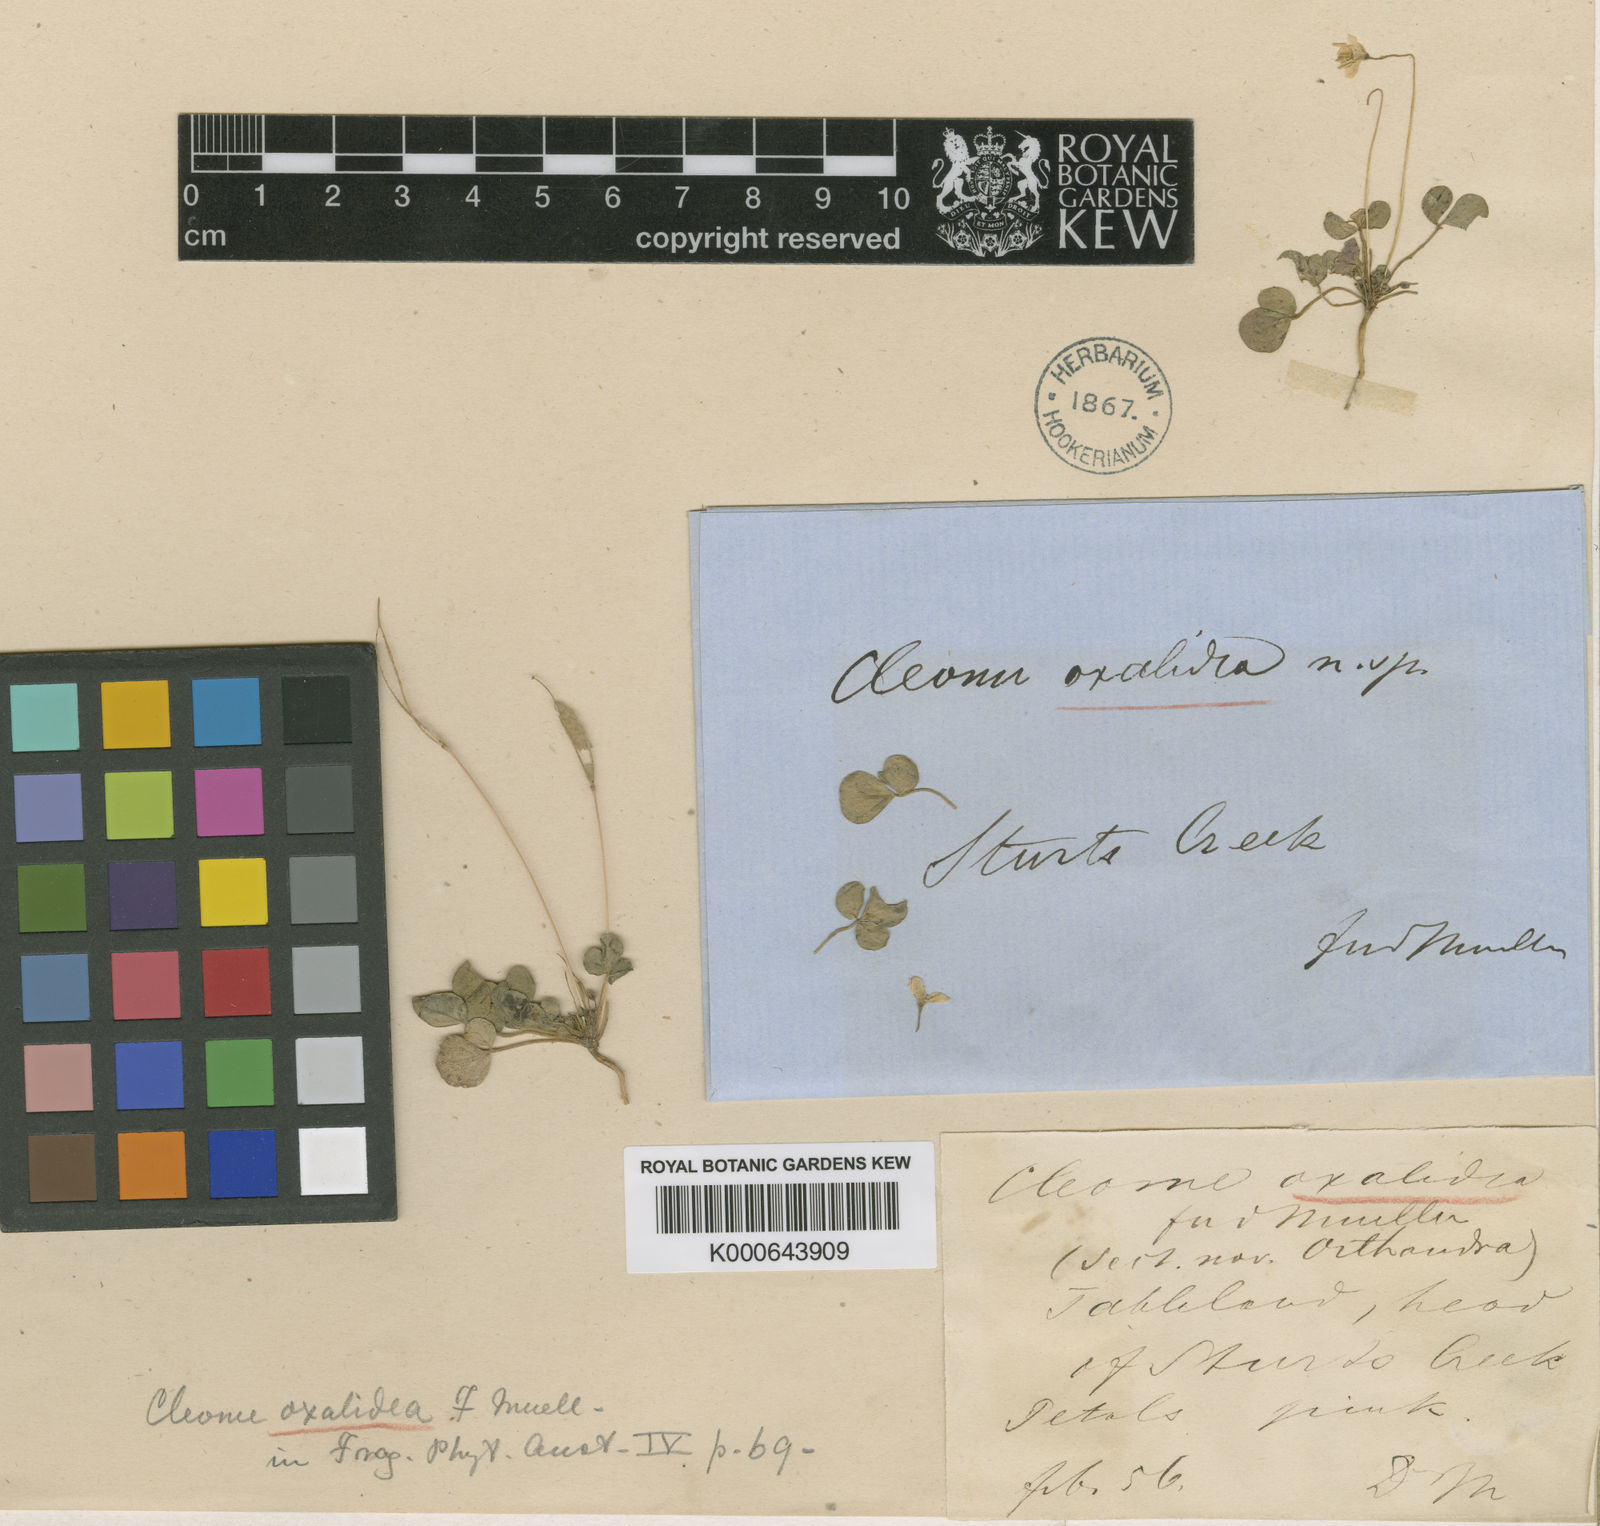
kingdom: Plantae
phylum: Tracheophyta
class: Magnoliopsida
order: Brassicales
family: Cleomaceae
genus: Areocleome
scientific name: Areocleome oxalidea
